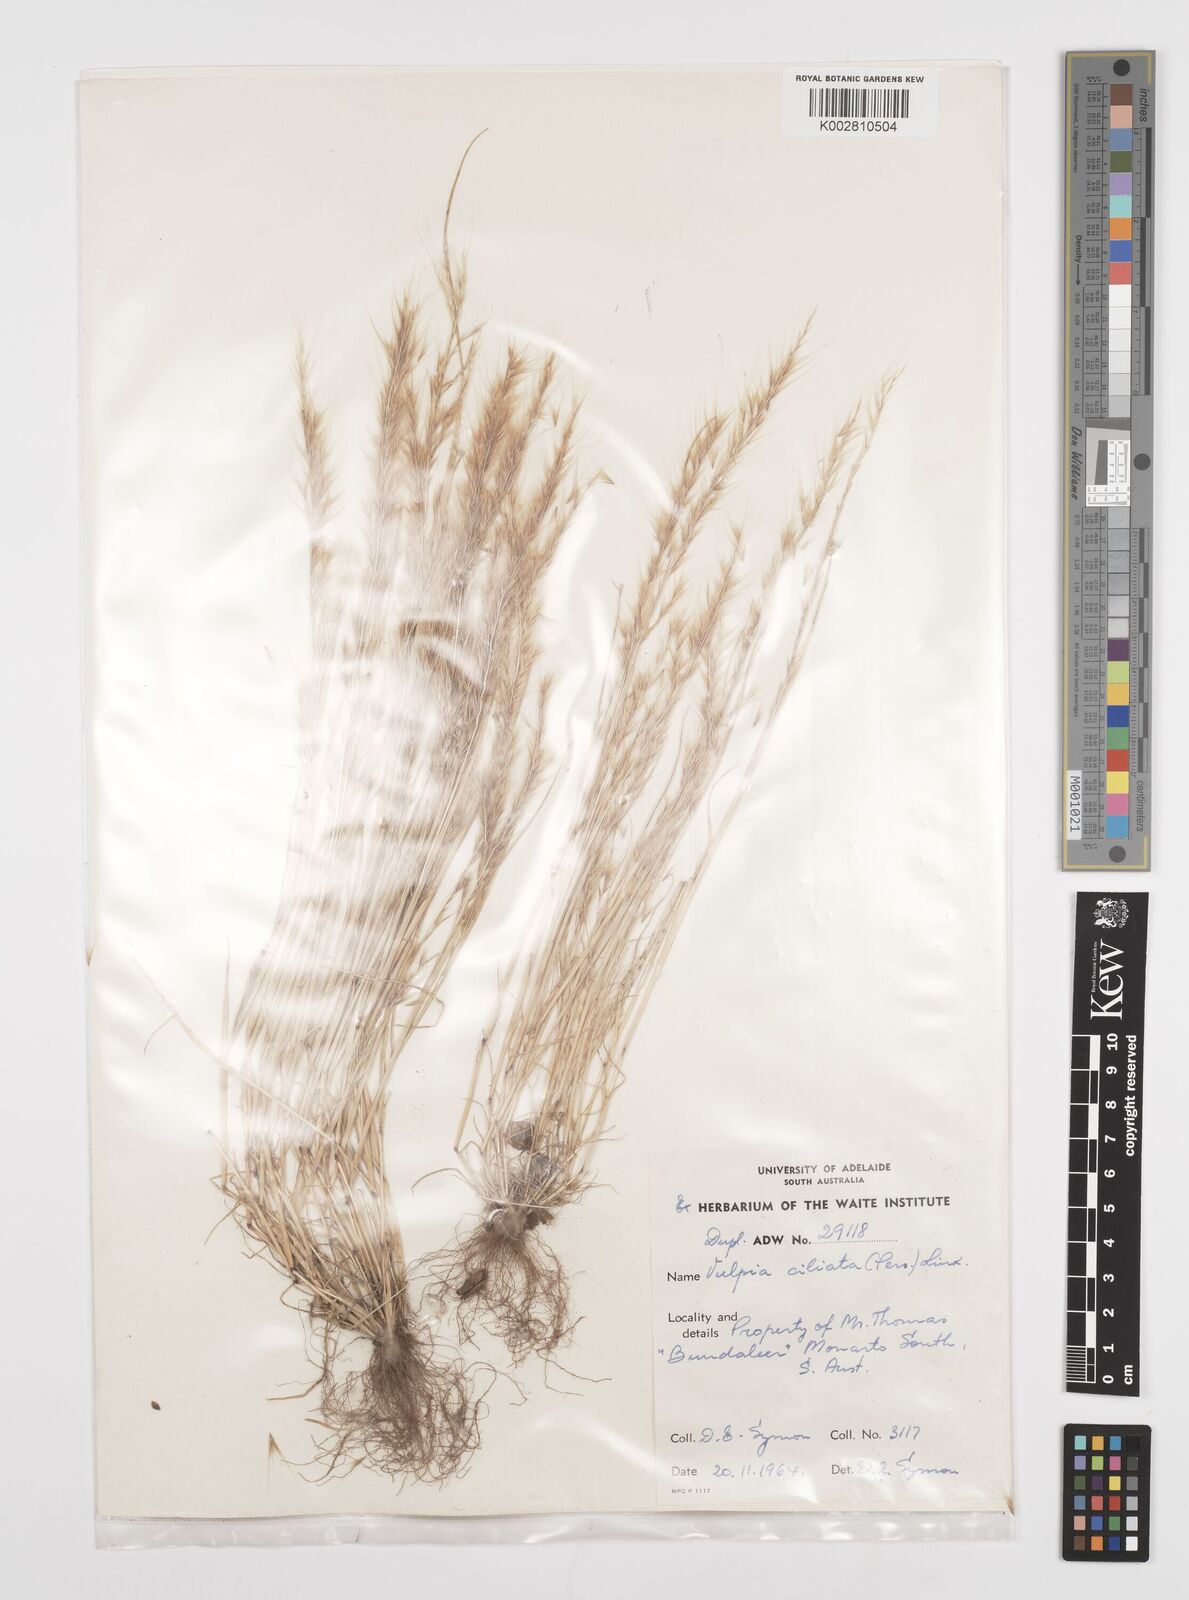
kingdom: Plantae
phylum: Tracheophyta
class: Liliopsida
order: Poales
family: Poaceae
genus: Festuca
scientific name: Festuca
